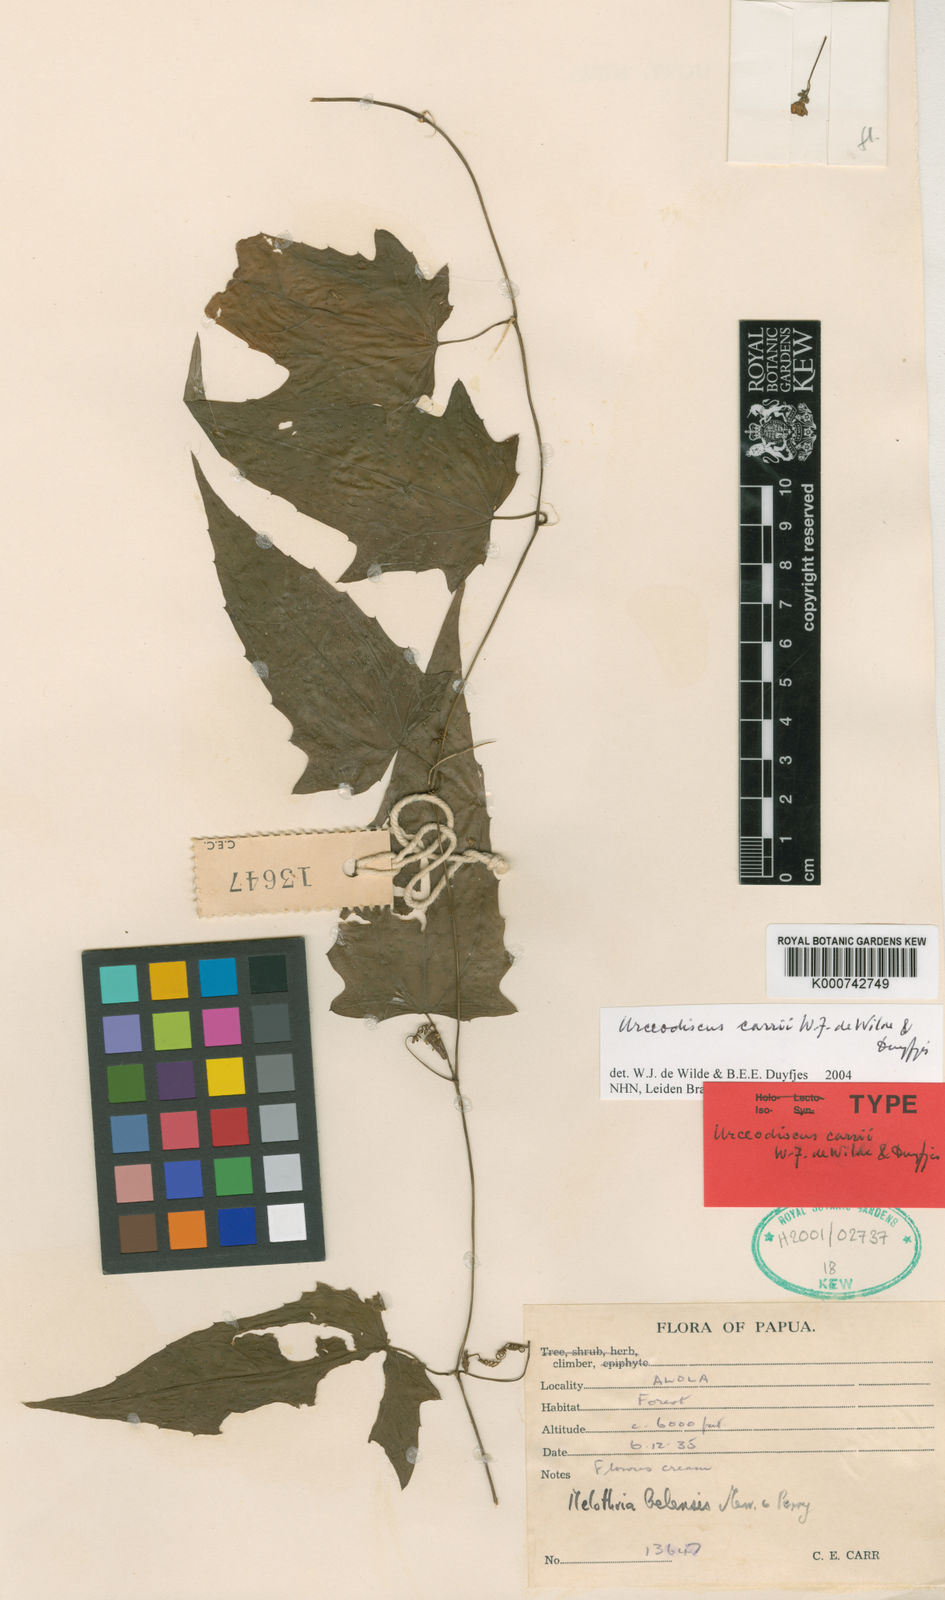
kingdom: Plantae
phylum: Tracheophyta
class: Magnoliopsida
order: Cucurbitales
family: Cucurbitaceae
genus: Papuasicyos
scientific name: Papuasicyos carrii
